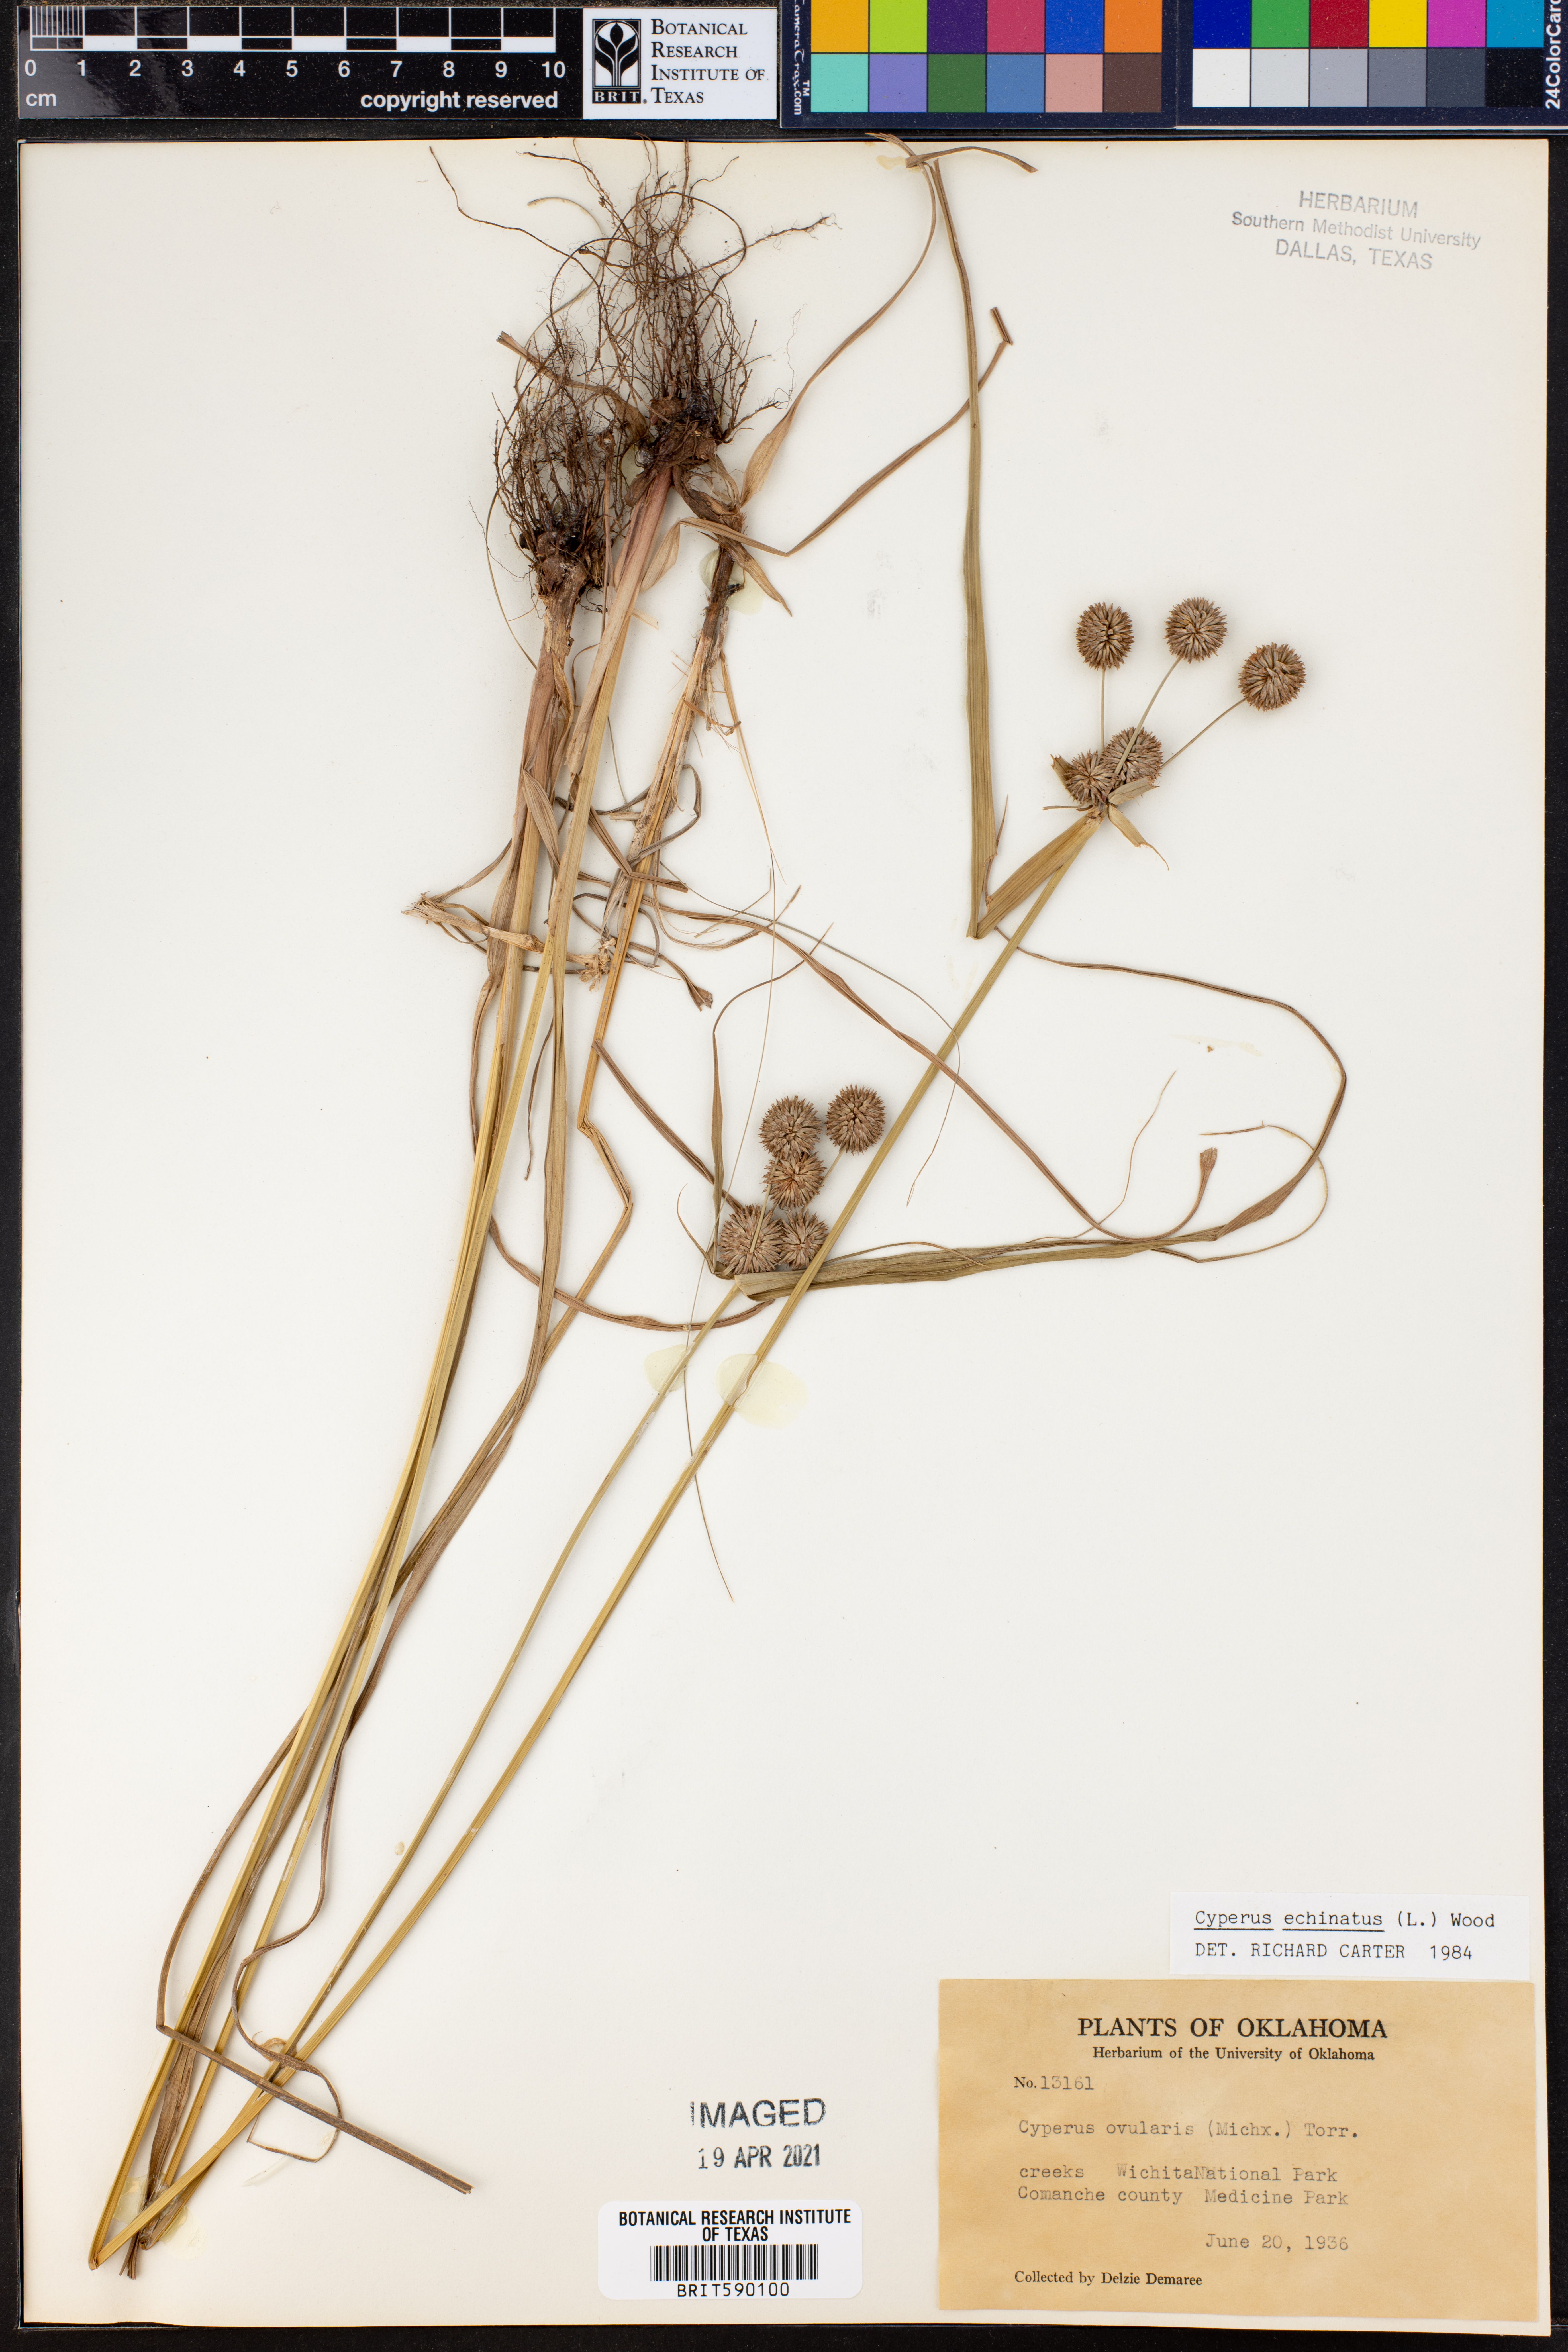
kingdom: Plantae
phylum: Tracheophyta
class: Liliopsida
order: Poales
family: Cyperaceae
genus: Cyperus
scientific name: Cyperus echinatus
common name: Teasel sedge
